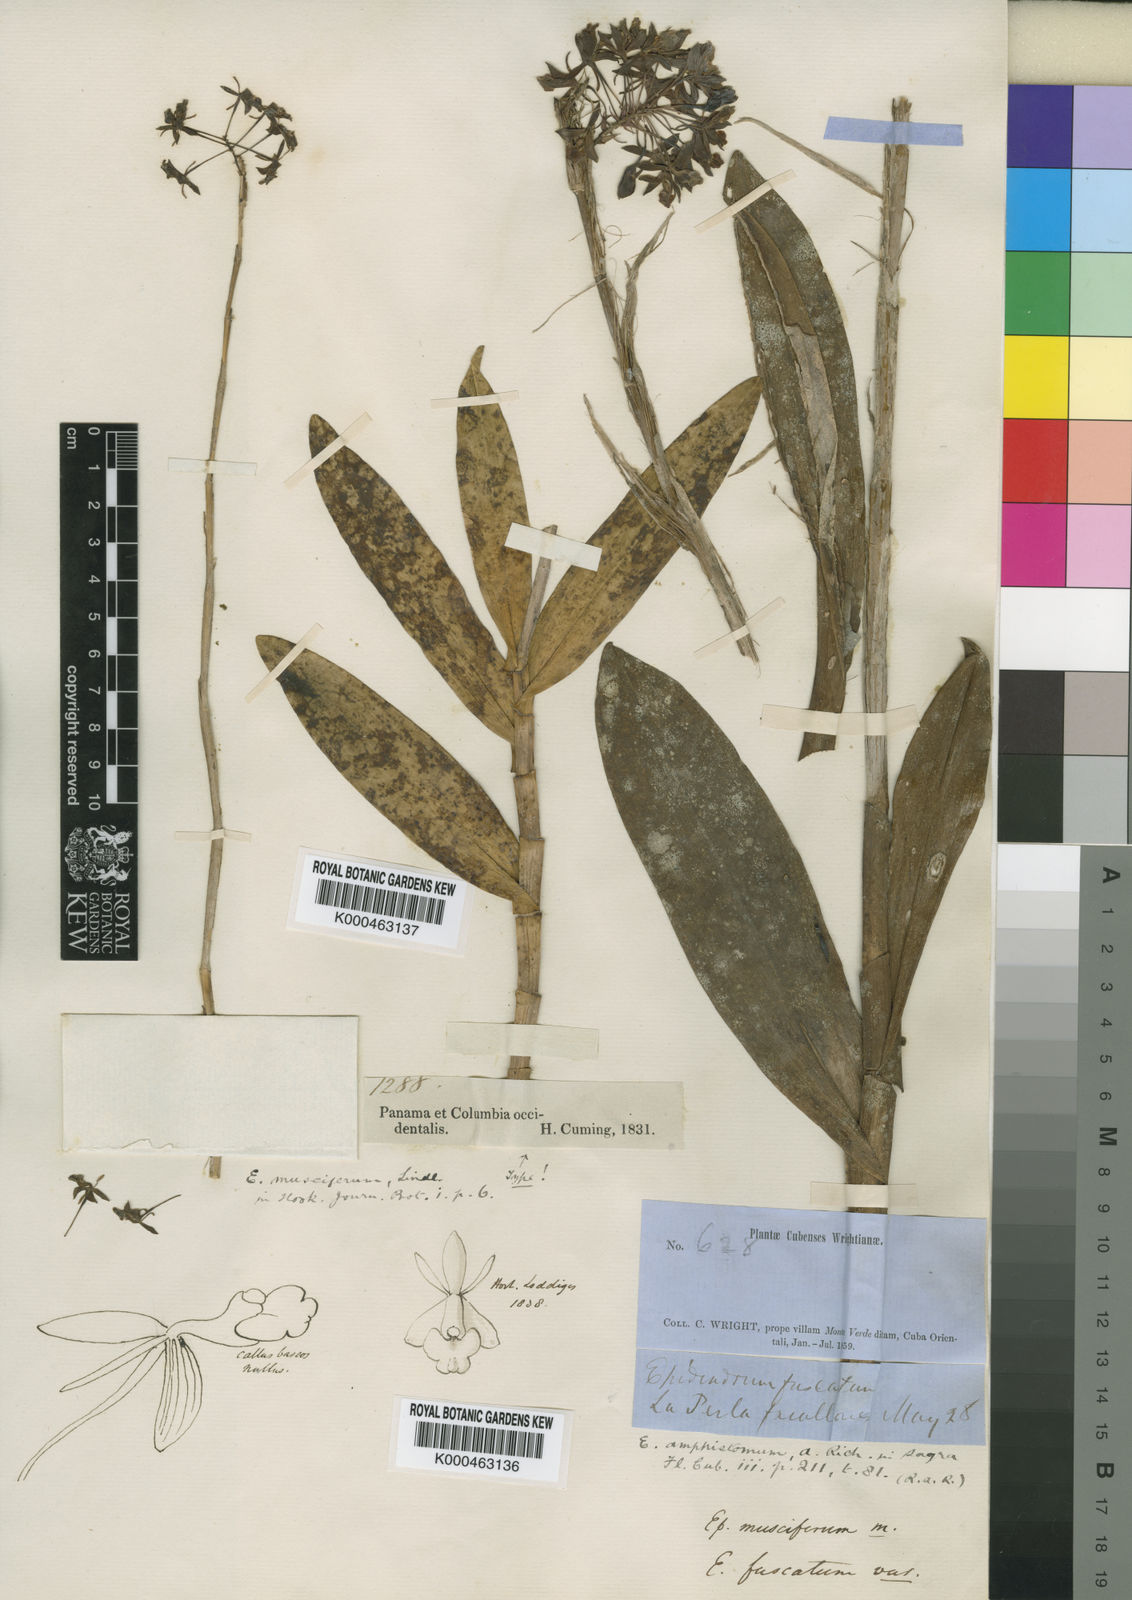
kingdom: Plantae
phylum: Tracheophyta
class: Liliopsida
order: Asparagales
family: Orchidaceae
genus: Epidendrum
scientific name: Epidendrum amphistomum
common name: Big-mouth star orchid
